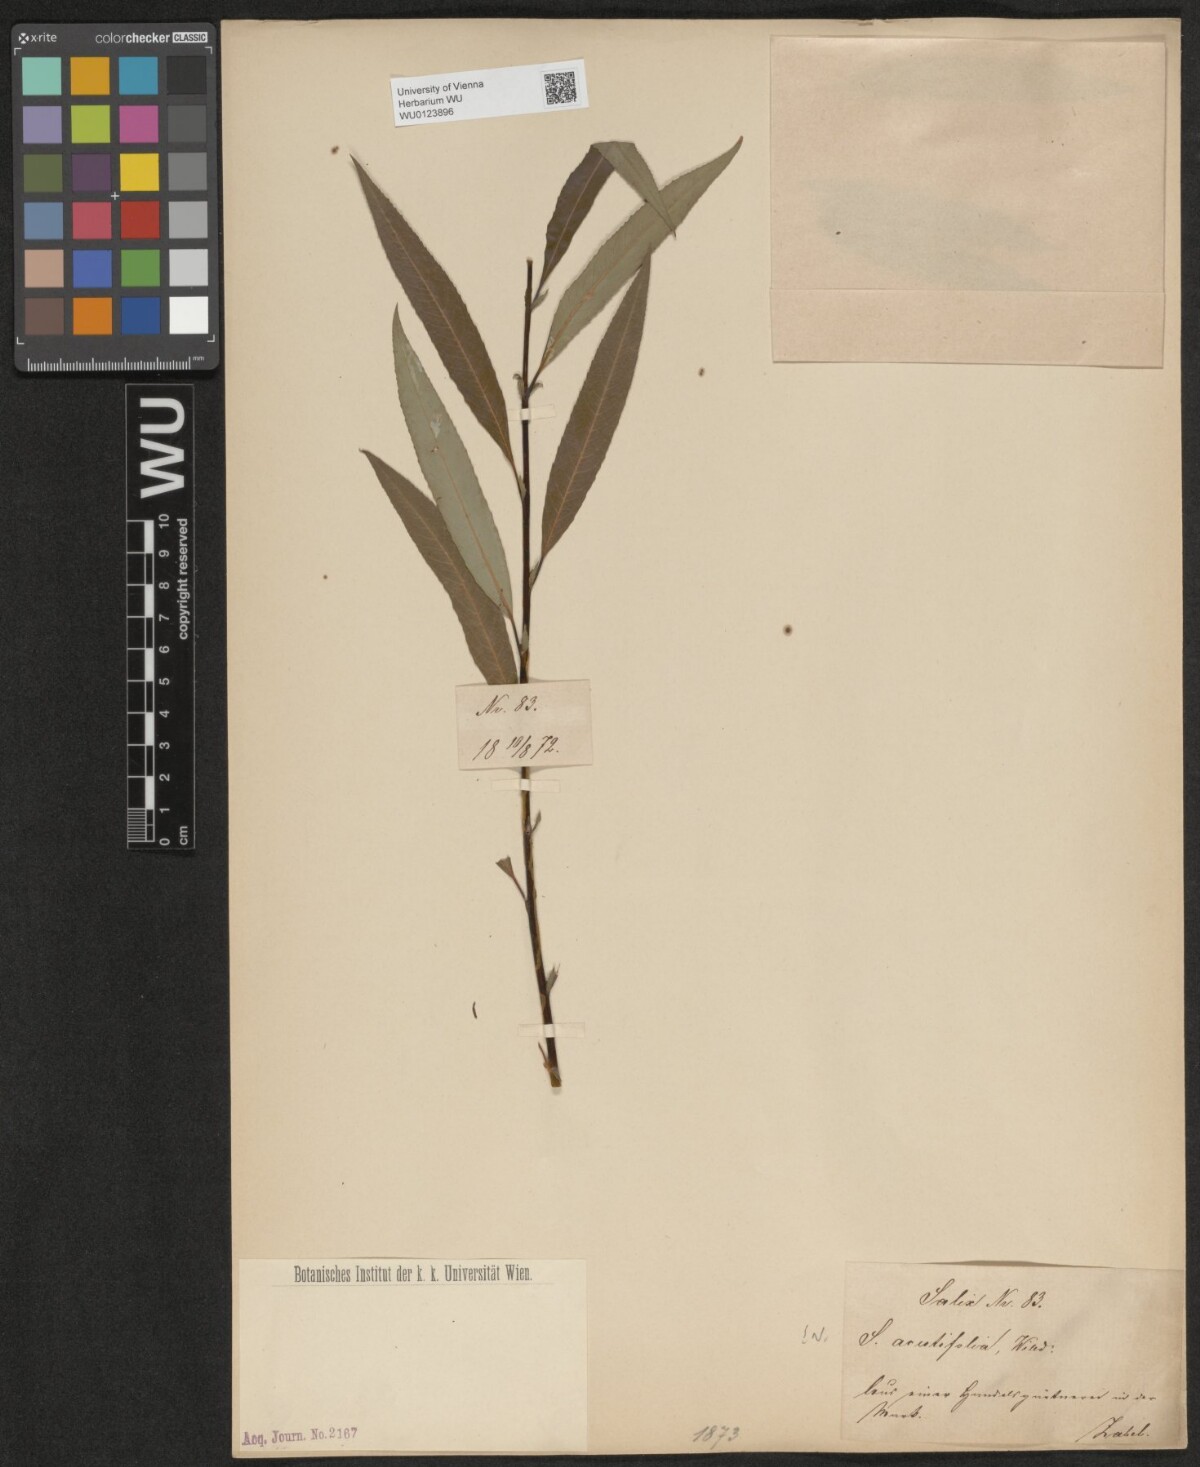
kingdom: Plantae
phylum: Tracheophyta
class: Magnoliopsida
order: Malpighiales
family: Salicaceae
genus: Salix
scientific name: Salix acutifolia
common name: Siberian violet-willow
